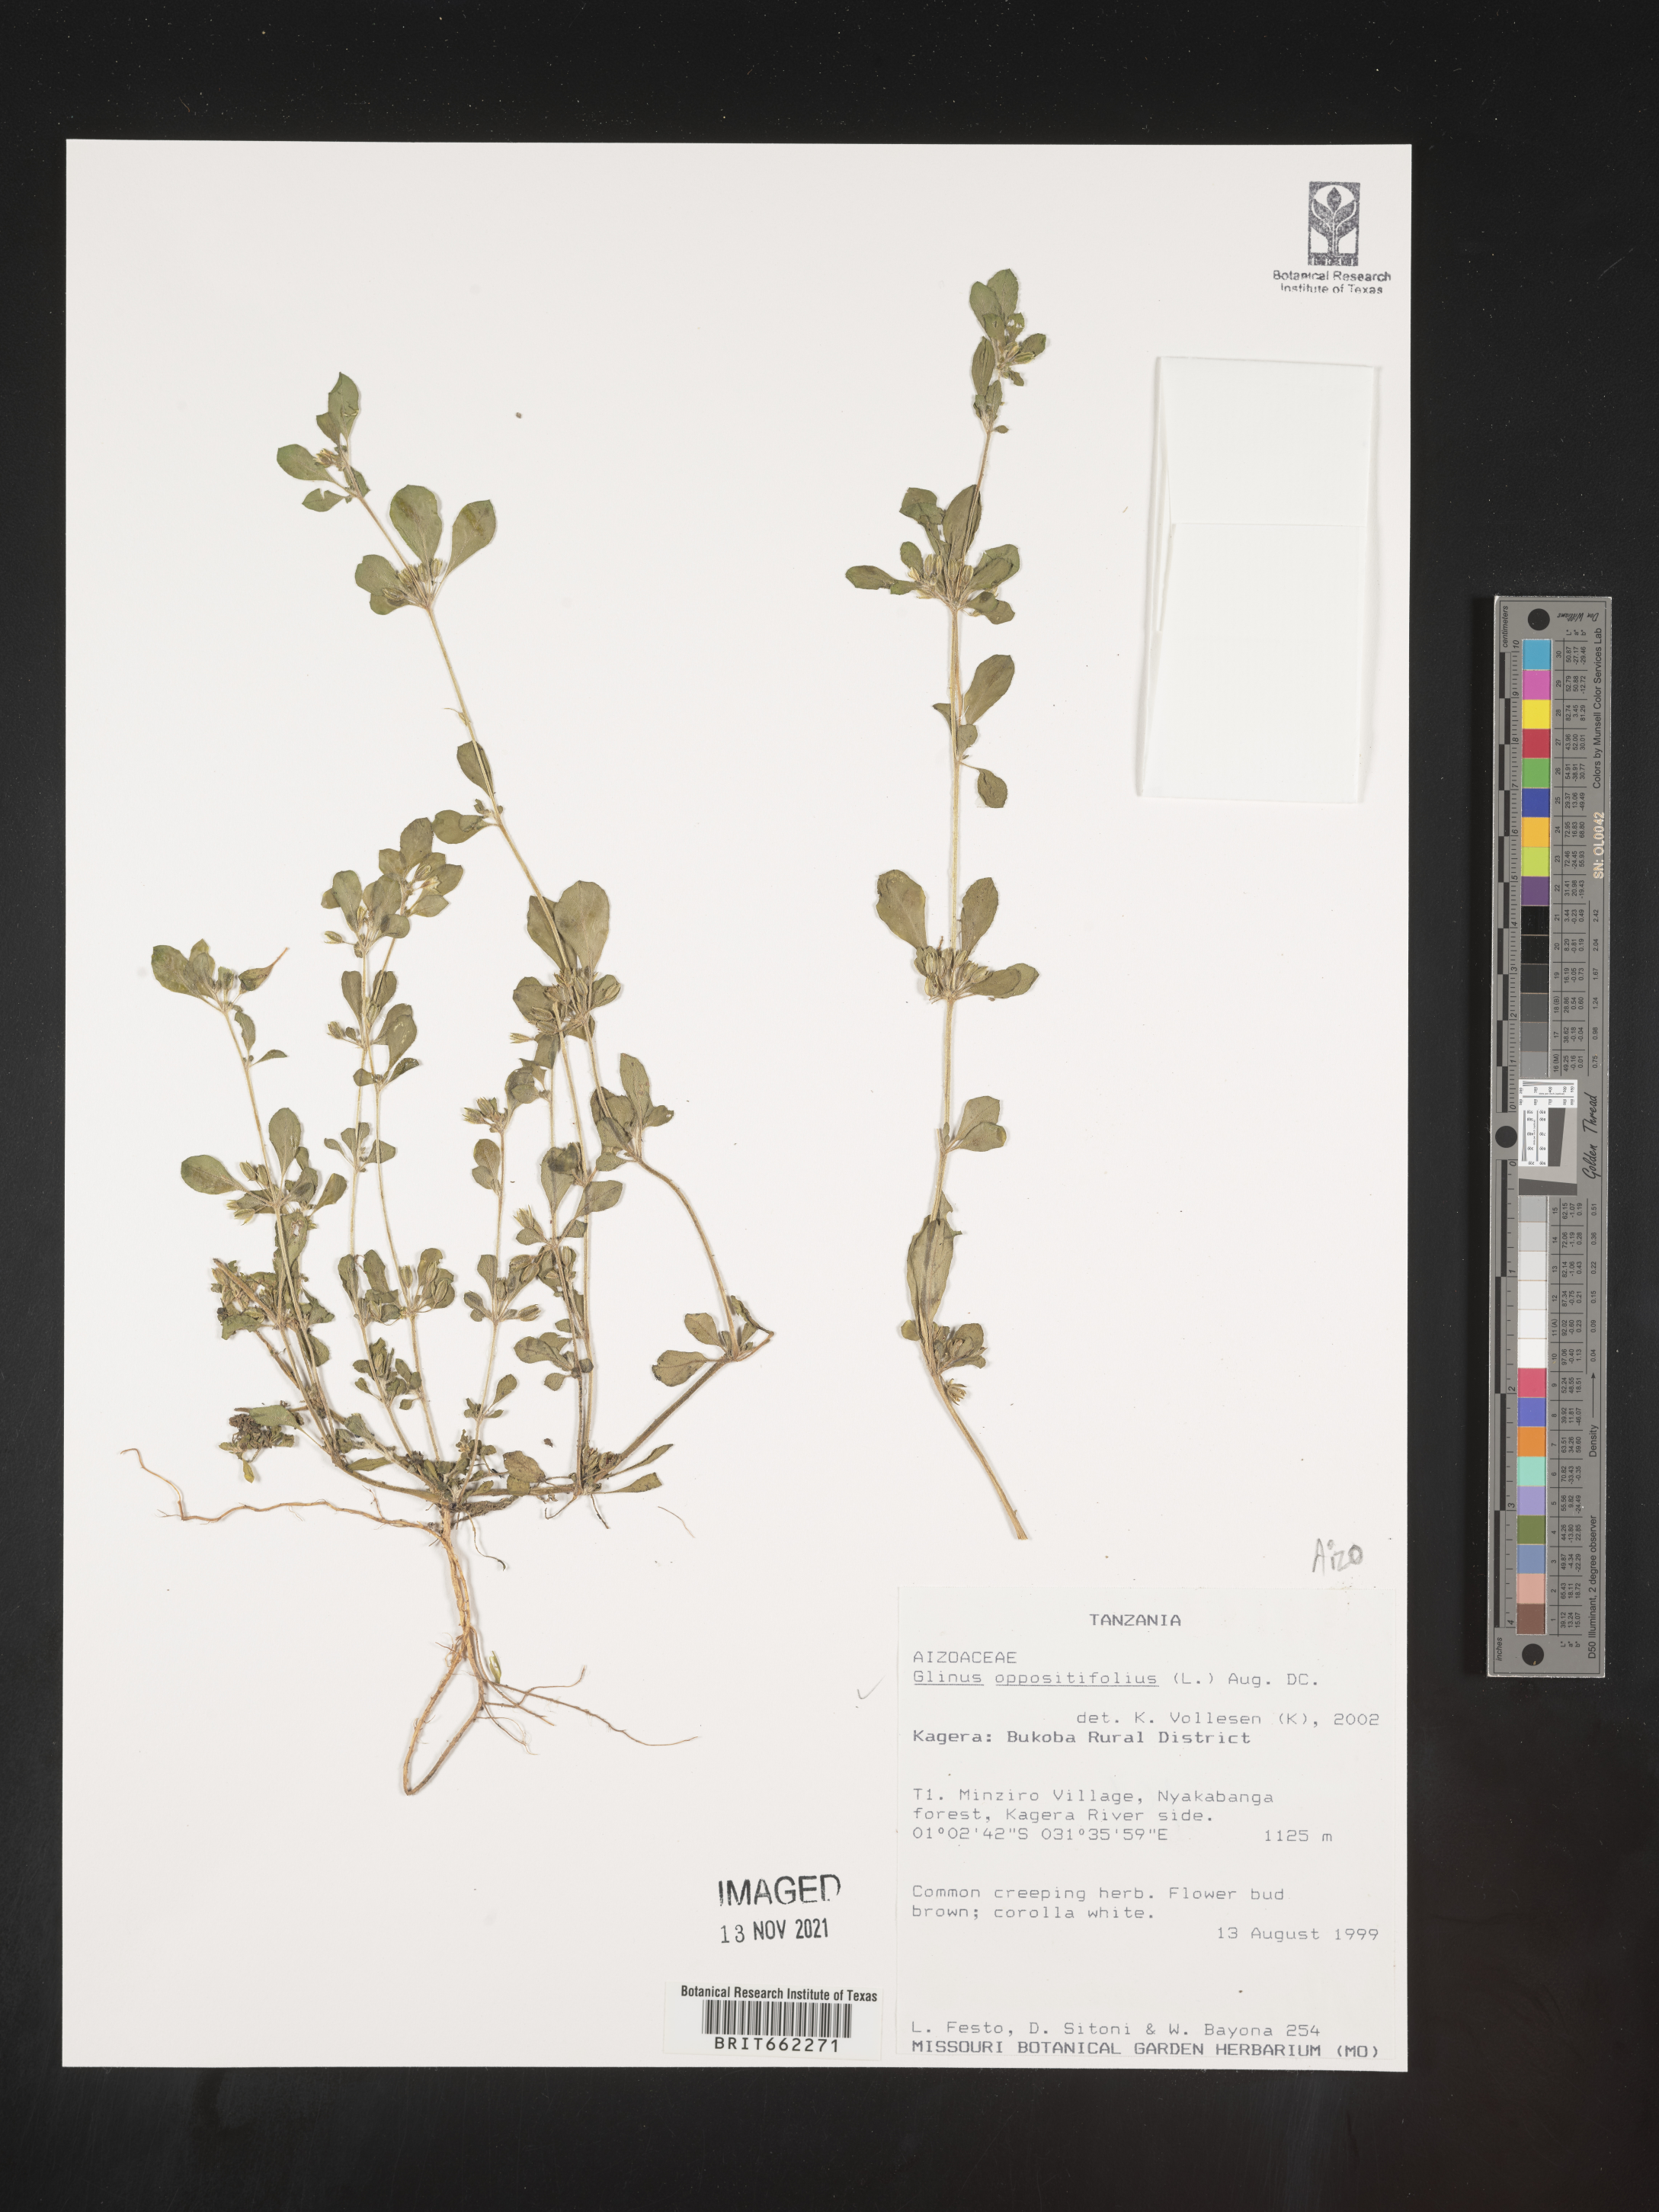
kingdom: Plantae
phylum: Tracheophyta
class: Magnoliopsida
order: Caryophyllales
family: Molluginaceae
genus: Glinus
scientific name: Glinus
